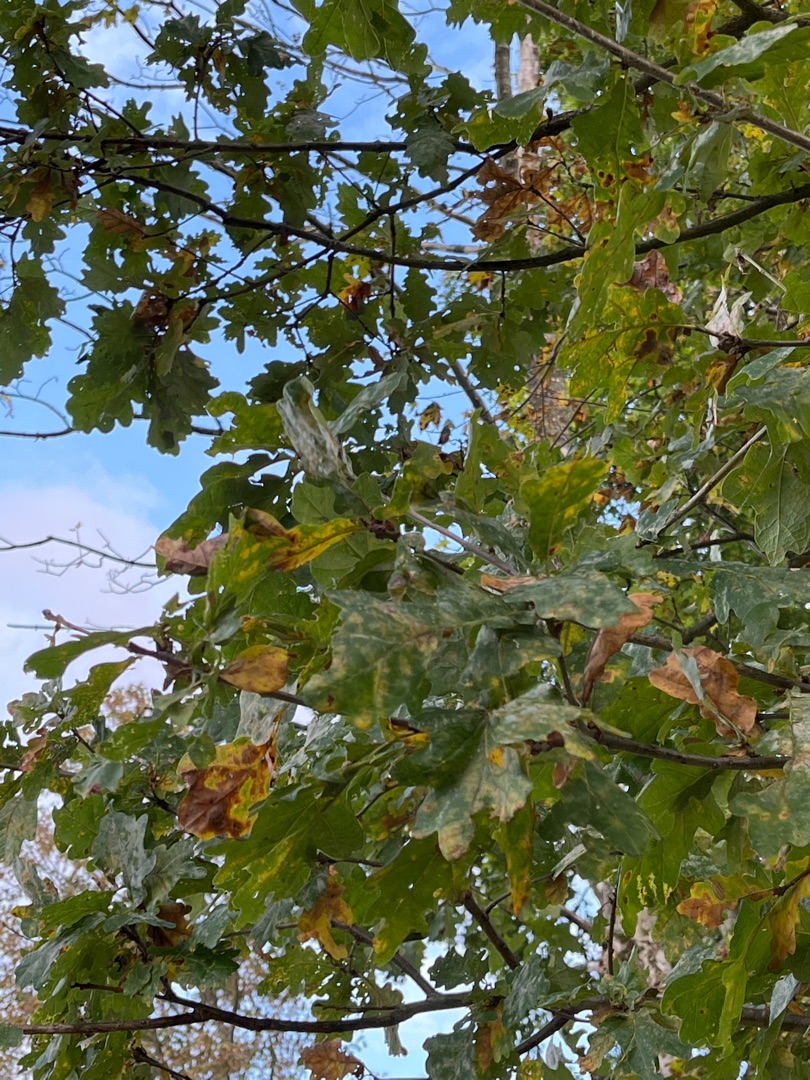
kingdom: Plantae
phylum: Tracheophyta
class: Magnoliopsida
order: Fagales
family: Fagaceae
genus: Quercus
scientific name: Quercus robur
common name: Stilk-eg/almindelig eg
